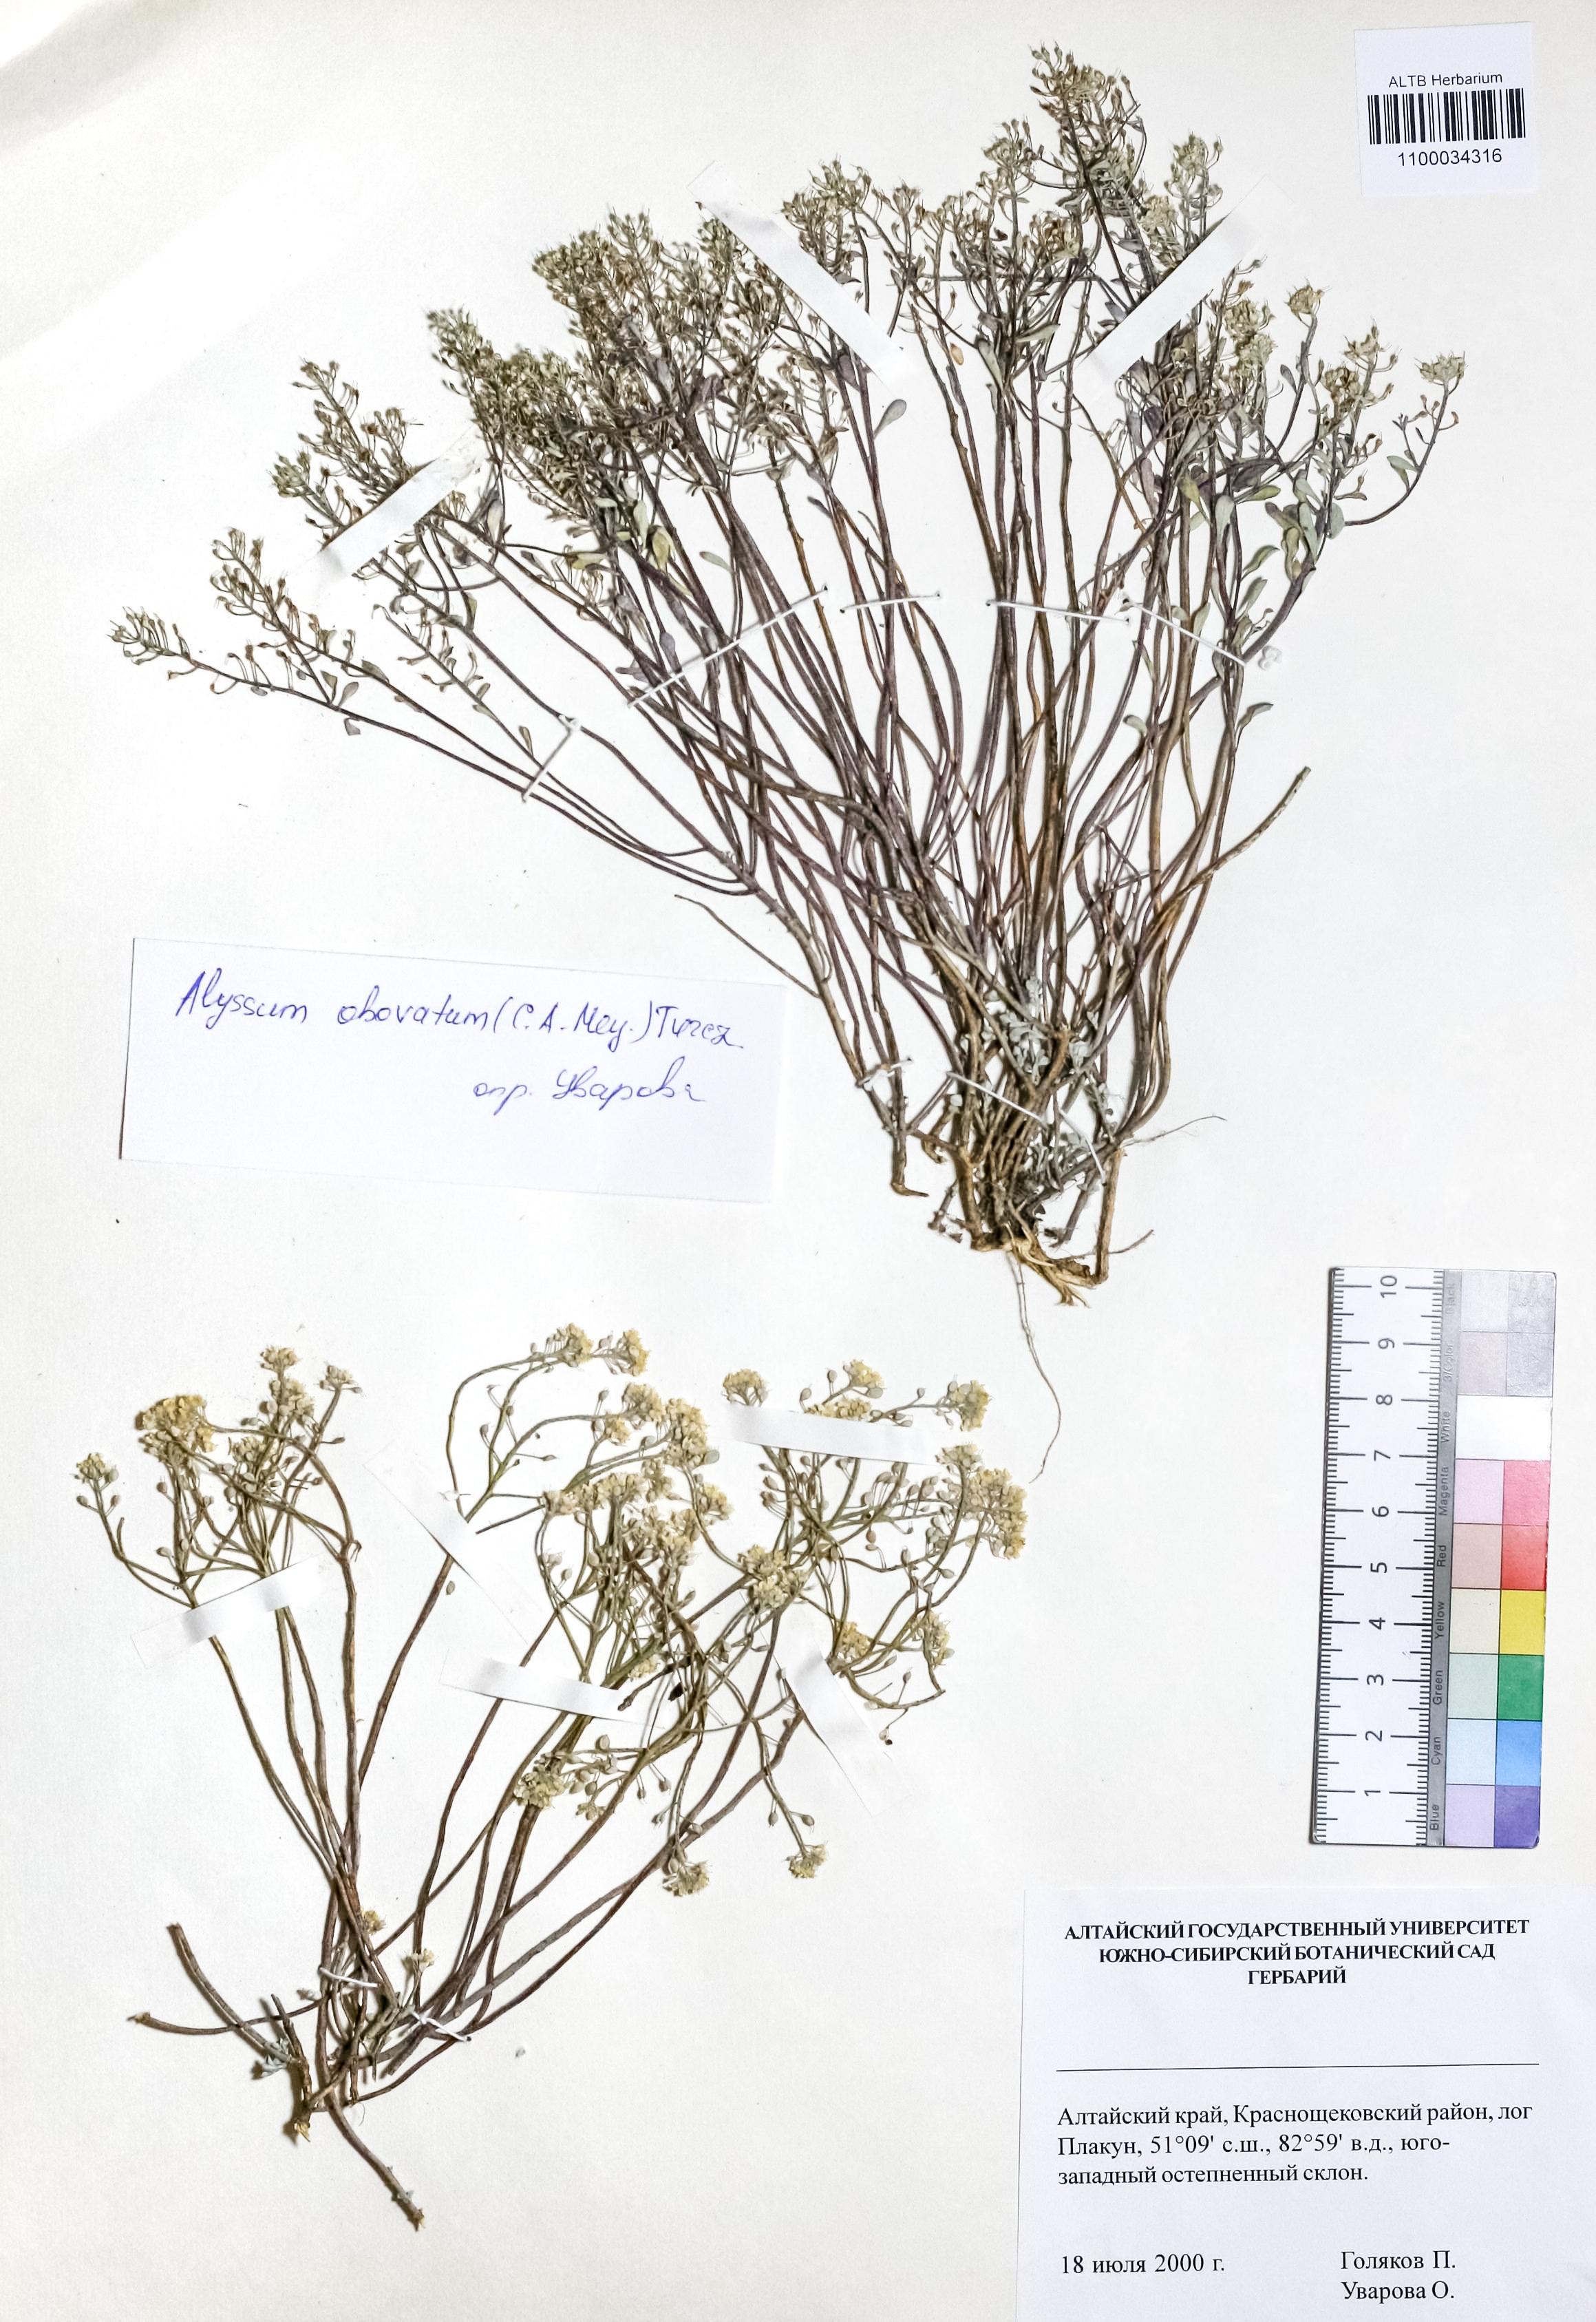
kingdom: Plantae
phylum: Tracheophyta
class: Magnoliopsida
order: Brassicales
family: Brassicaceae
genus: Odontarrhena
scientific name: Odontarrhena obovata
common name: American alyssum
